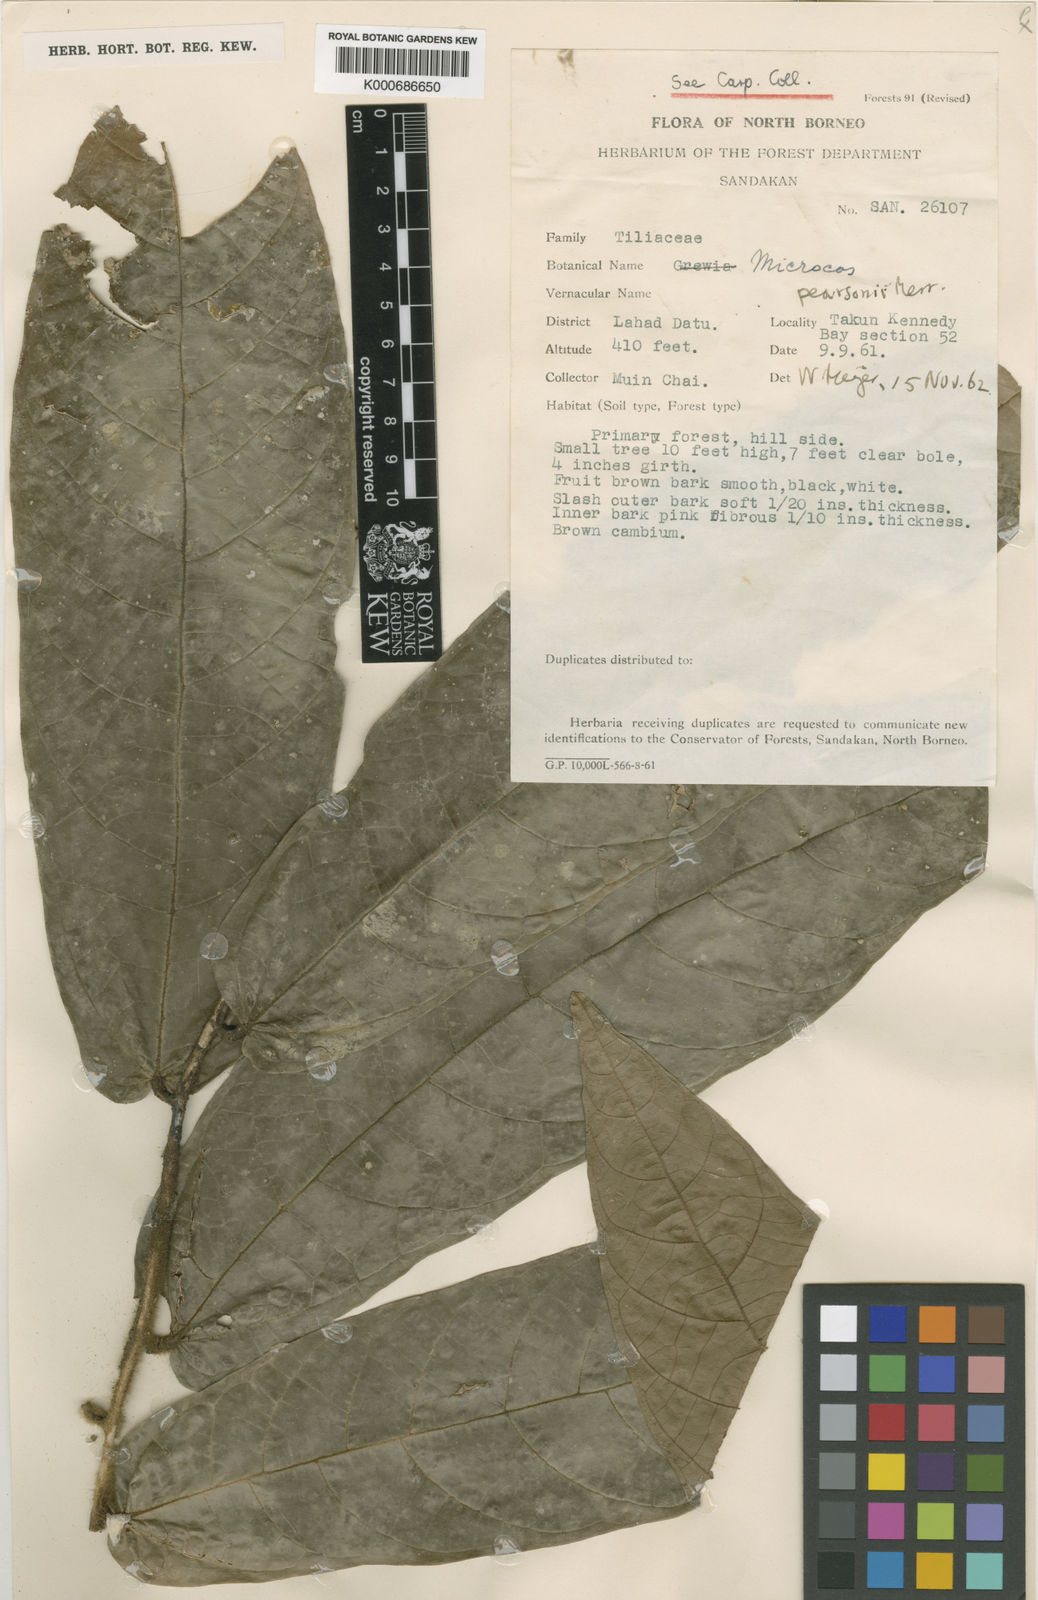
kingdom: Plantae
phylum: Tracheophyta
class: Magnoliopsida
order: Malvales
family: Malvaceae
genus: Microcos
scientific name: Microcos pearsonii
